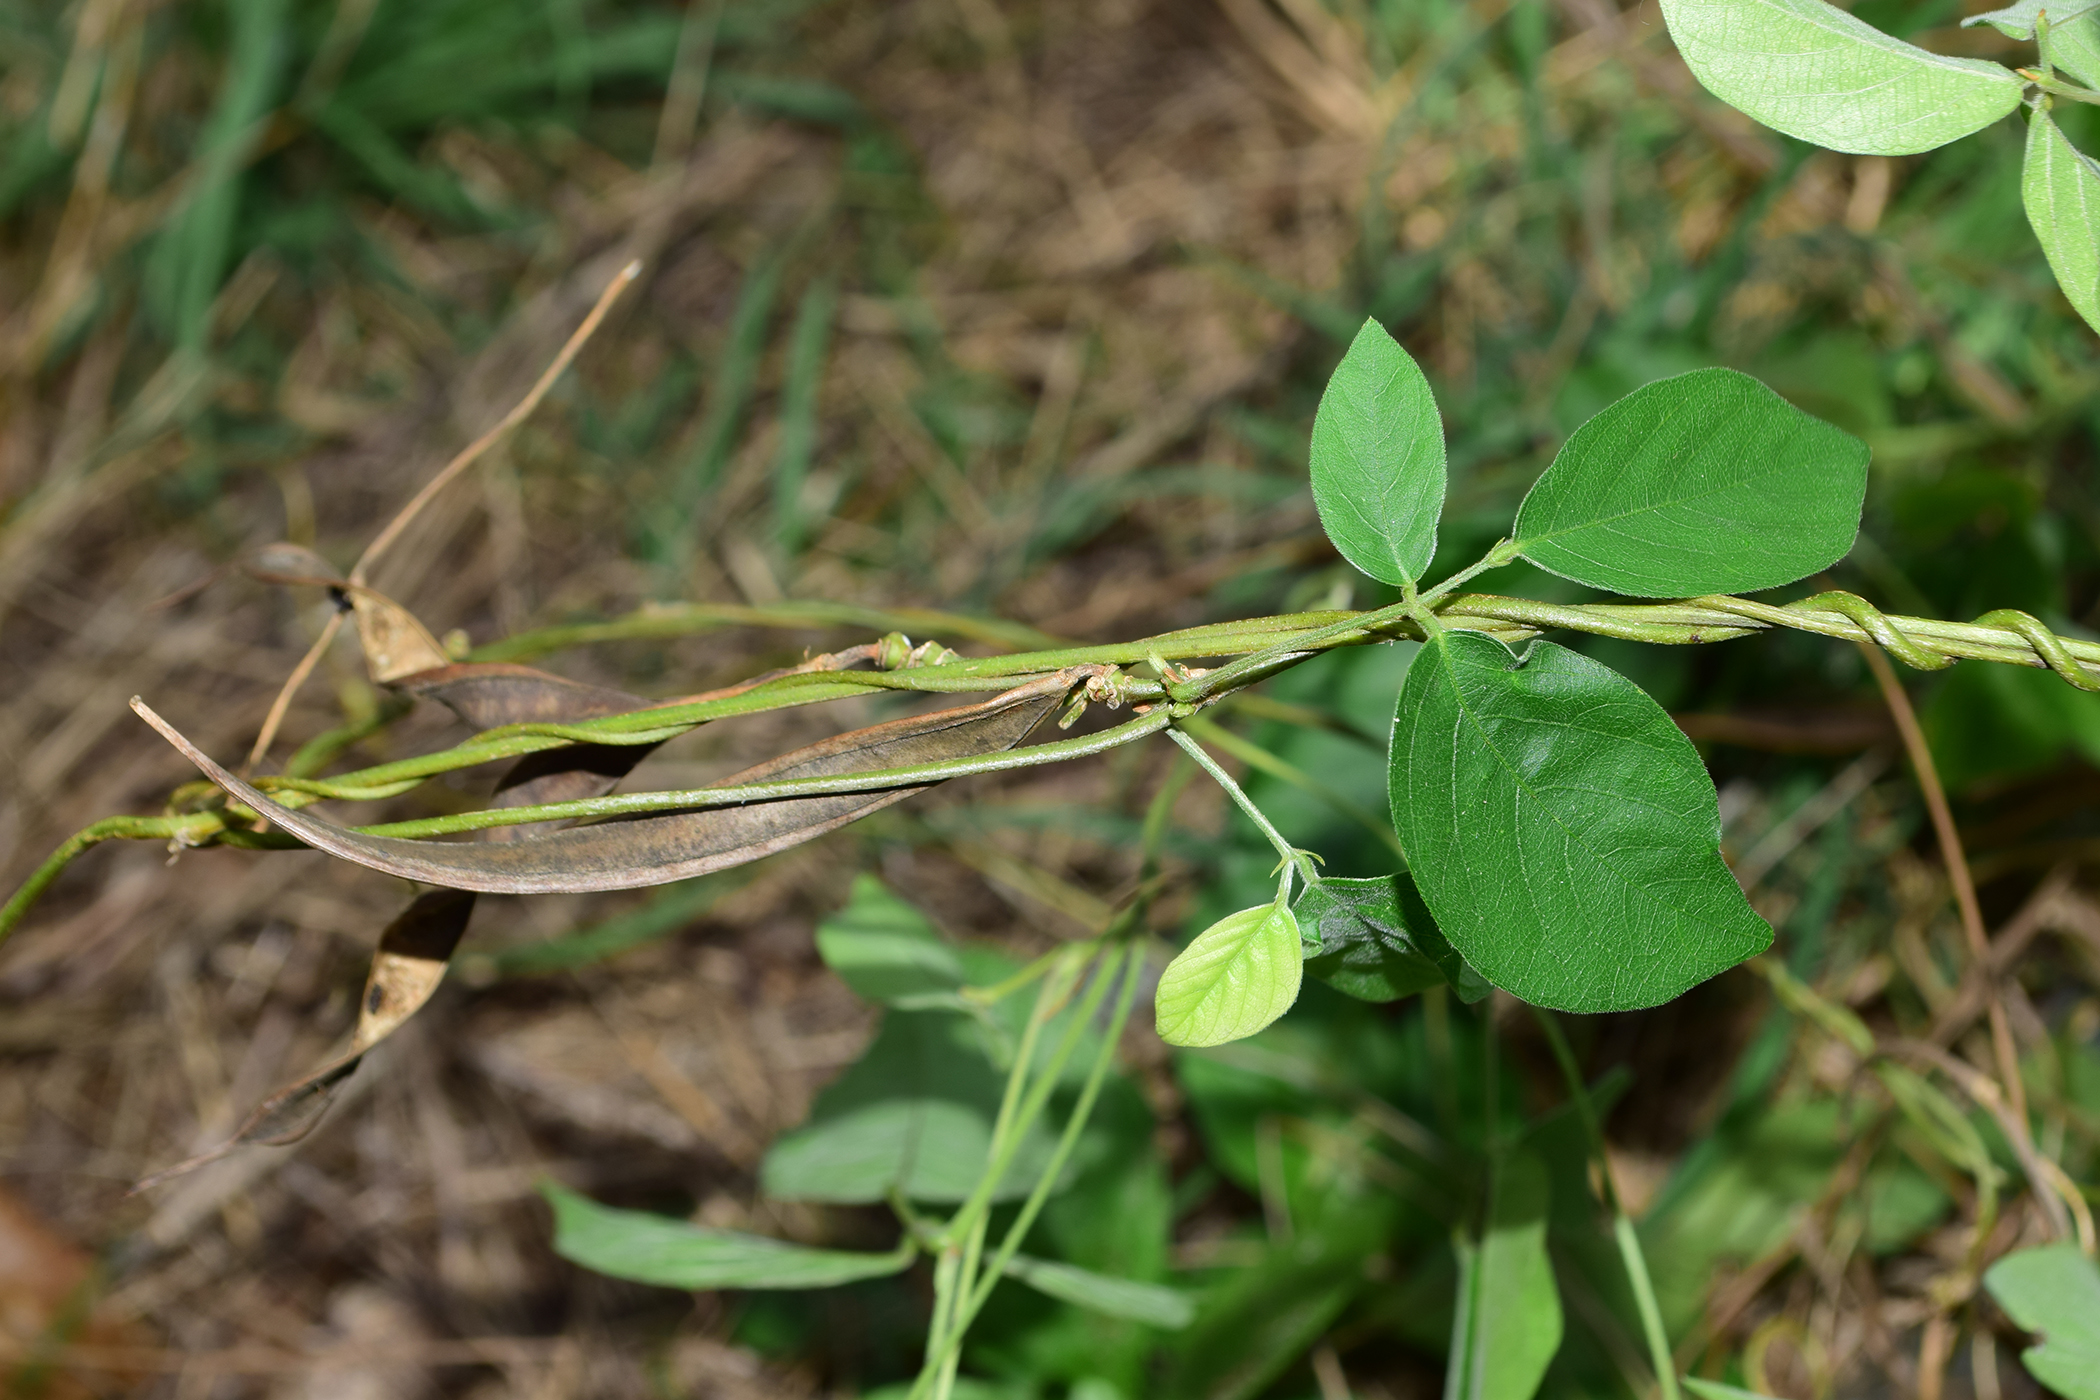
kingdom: Plantae
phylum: Tracheophyta
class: Magnoliopsida
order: Fabales
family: Fabaceae
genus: Centrosema
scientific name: Centrosema pubescens
